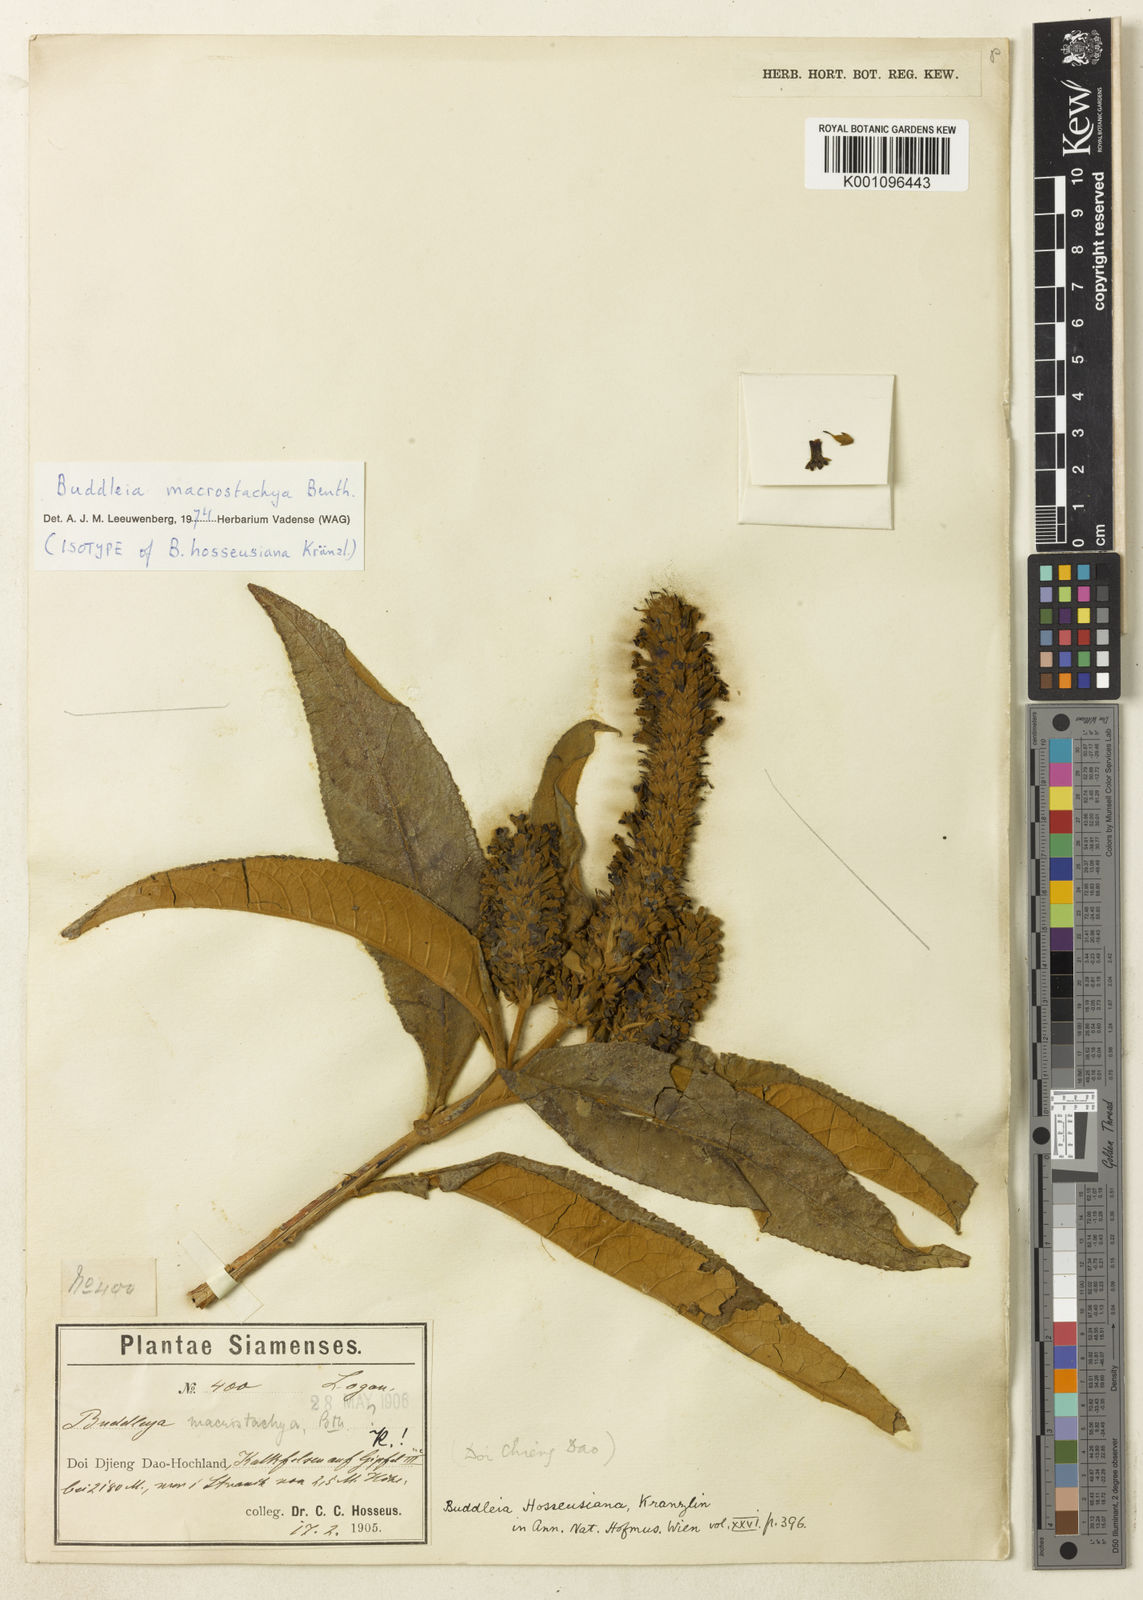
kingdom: Plantae
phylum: Tracheophyta
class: Magnoliopsida
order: Lamiales
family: Scrophulariaceae
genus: Buddleja
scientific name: Buddleja macrostachya
